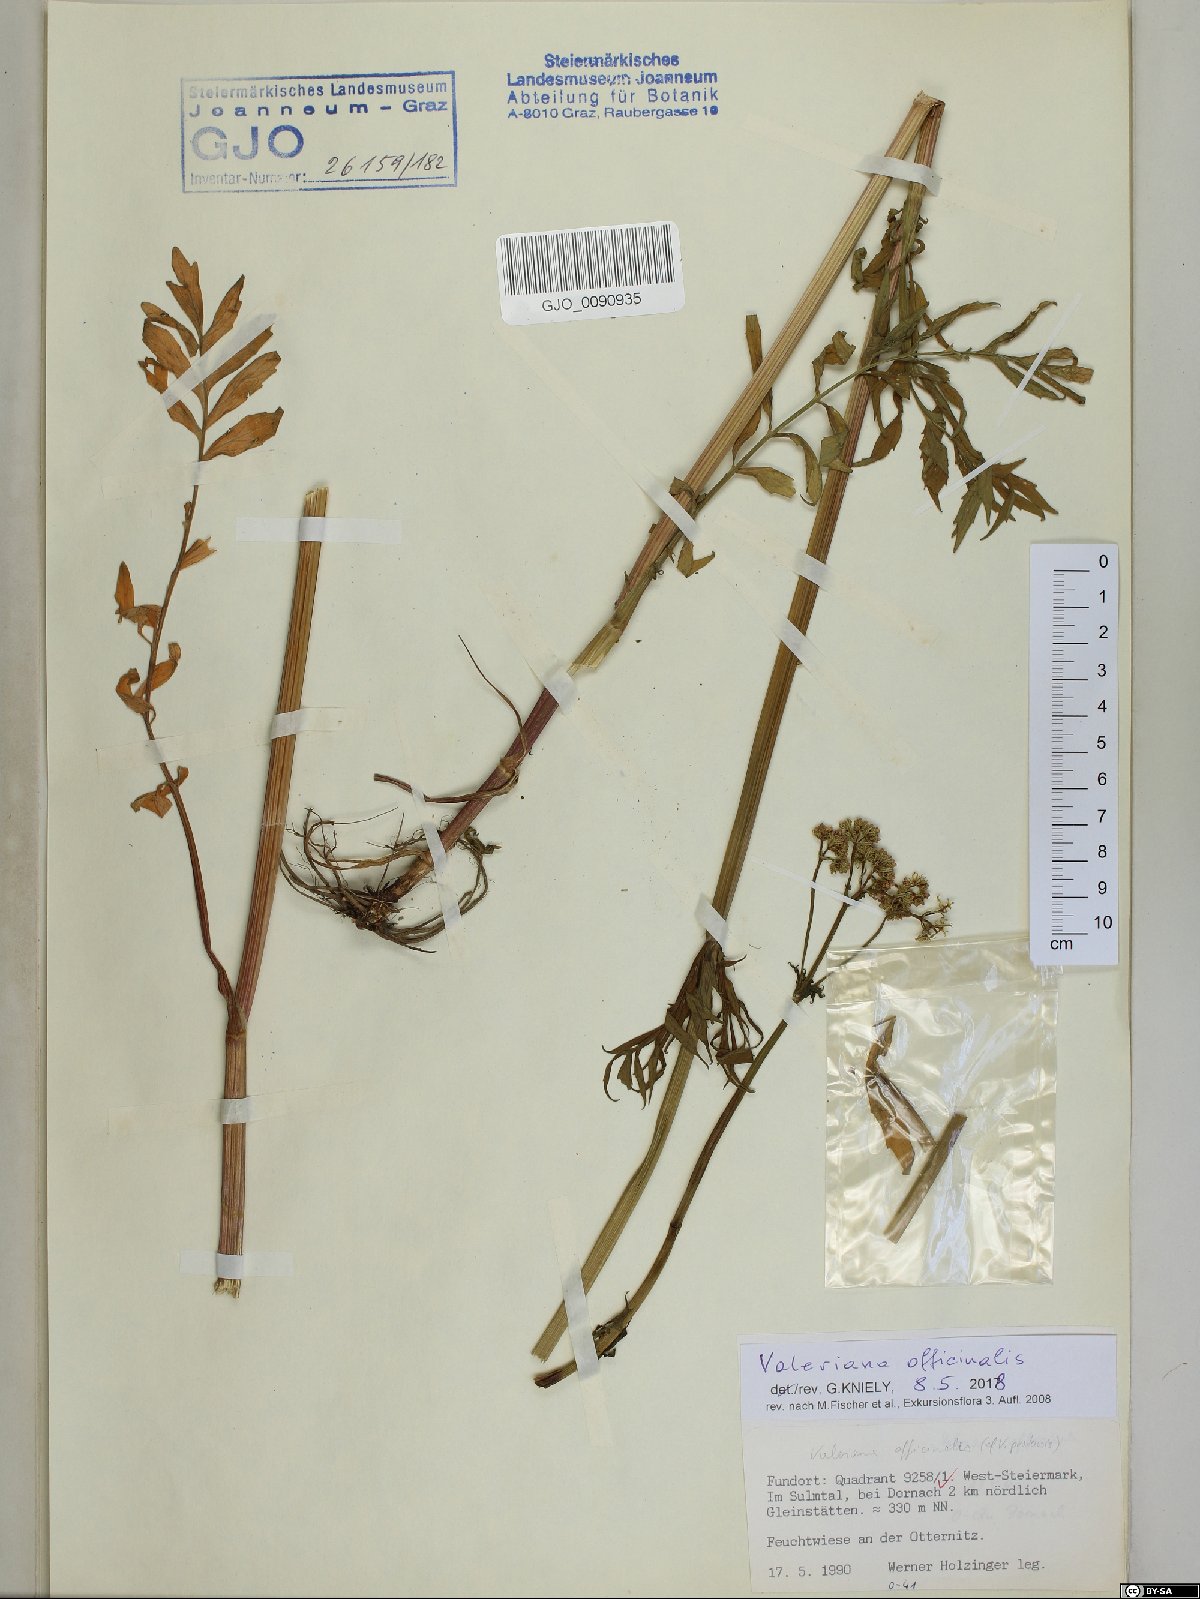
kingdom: Plantae
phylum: Tracheophyta
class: Magnoliopsida
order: Dipsacales
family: Caprifoliaceae
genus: Valeriana
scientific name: Valeriana officinalis
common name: Common valerian
